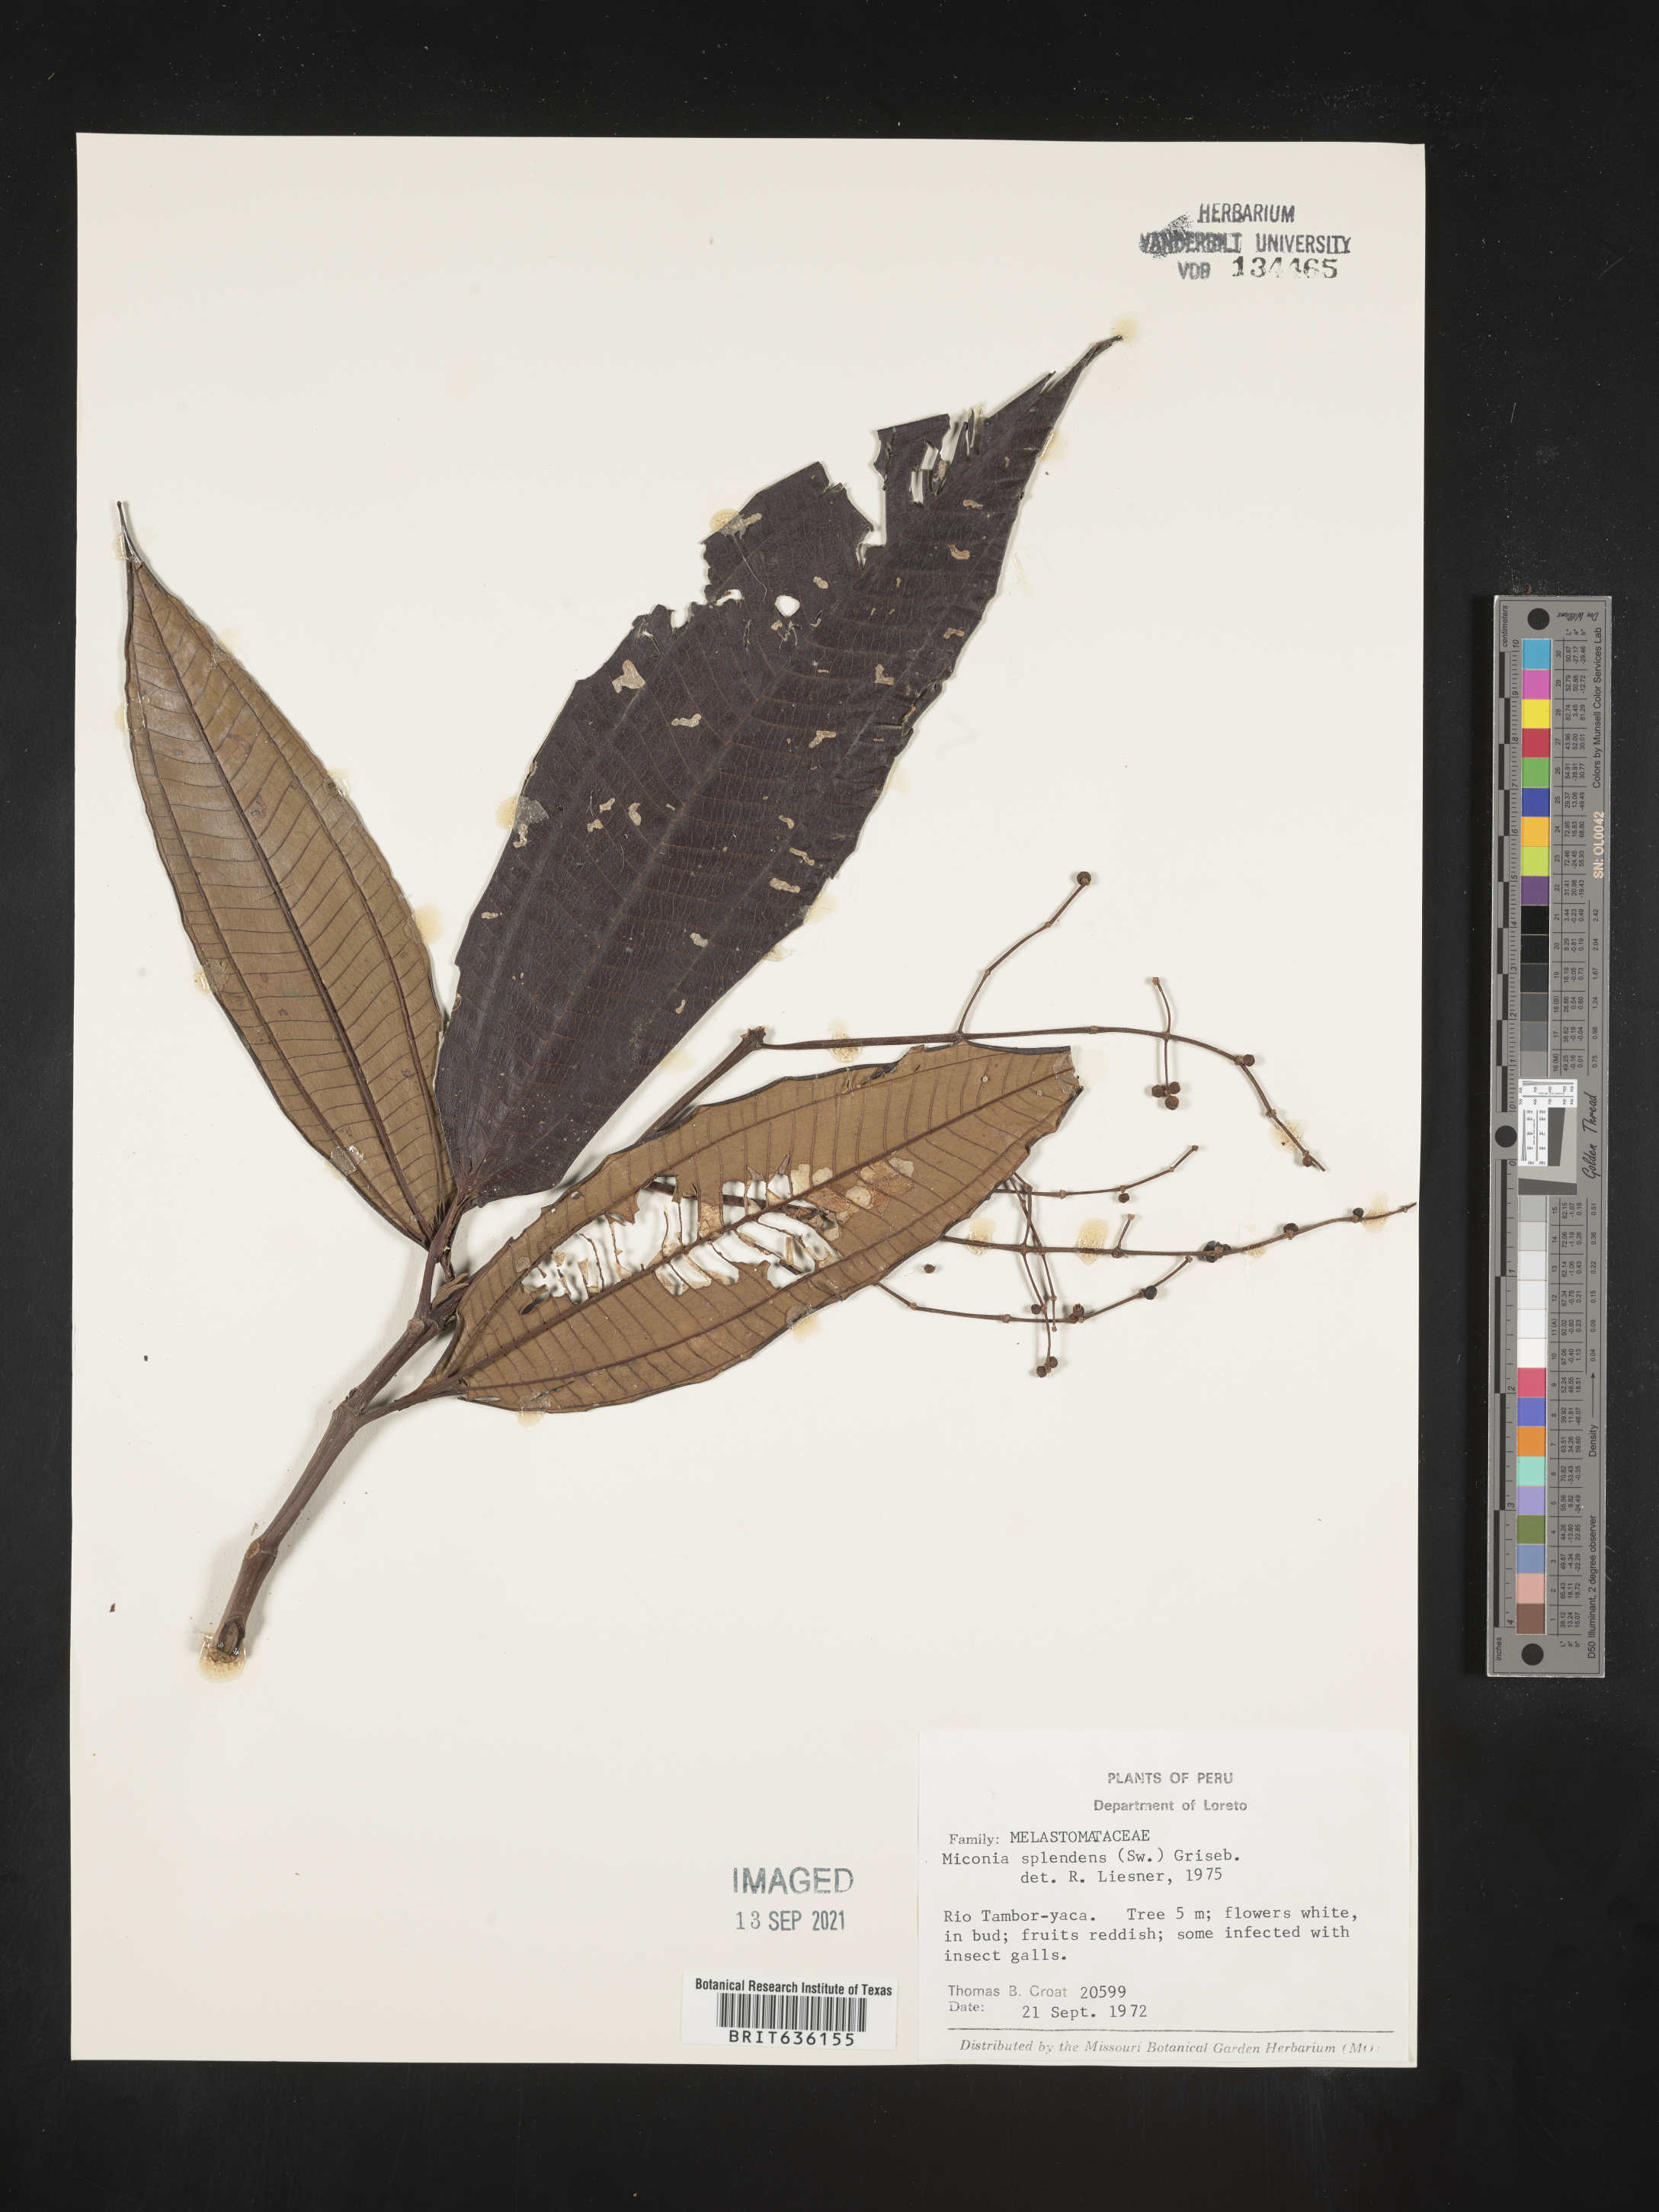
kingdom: Plantae
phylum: Tracheophyta
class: Magnoliopsida
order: Myrtales
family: Melastomataceae
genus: Miconia
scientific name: Miconia
